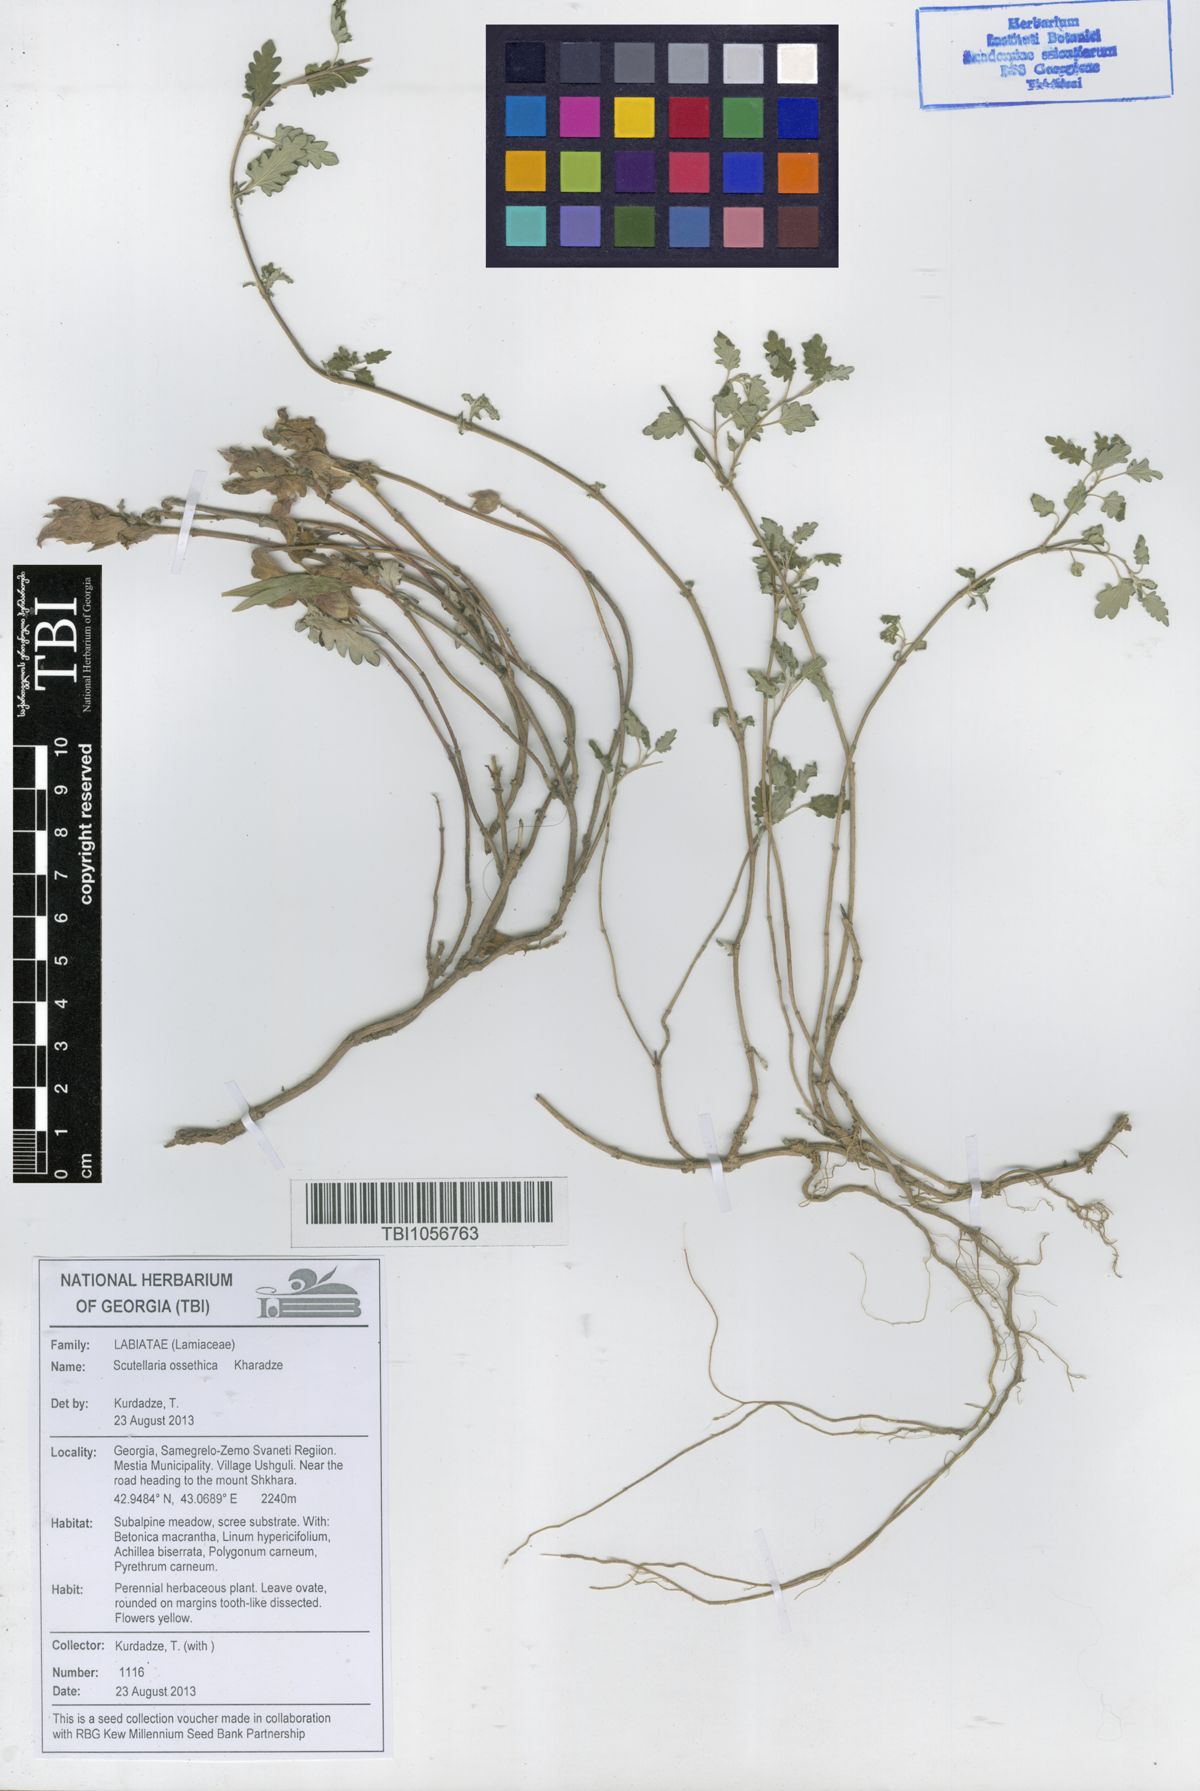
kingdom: Plantae
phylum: Tracheophyta
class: Magnoliopsida
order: Lamiales
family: Lamiaceae
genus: Scutellaria
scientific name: Scutellaria ossethica
